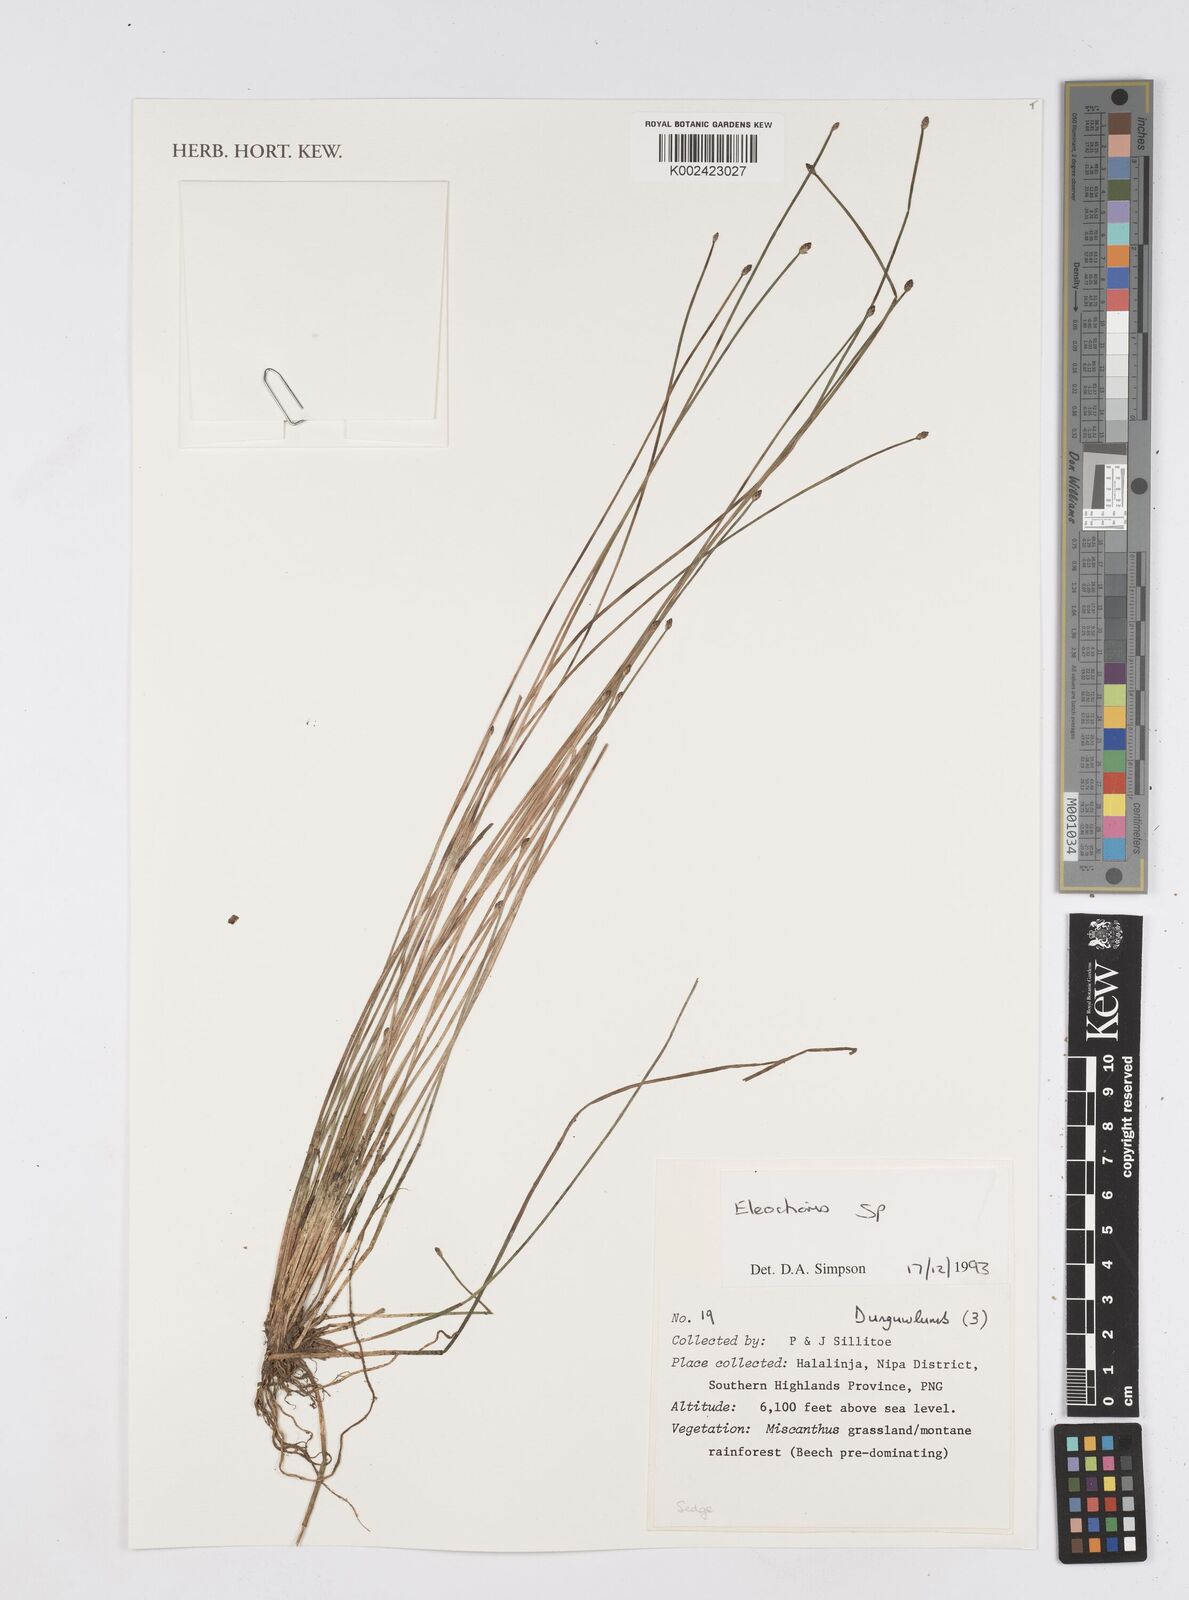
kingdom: Plantae
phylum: Tracheophyta
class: Liliopsida
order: Poales
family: Cyperaceae
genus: Eleocharis
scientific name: Eleocharis
